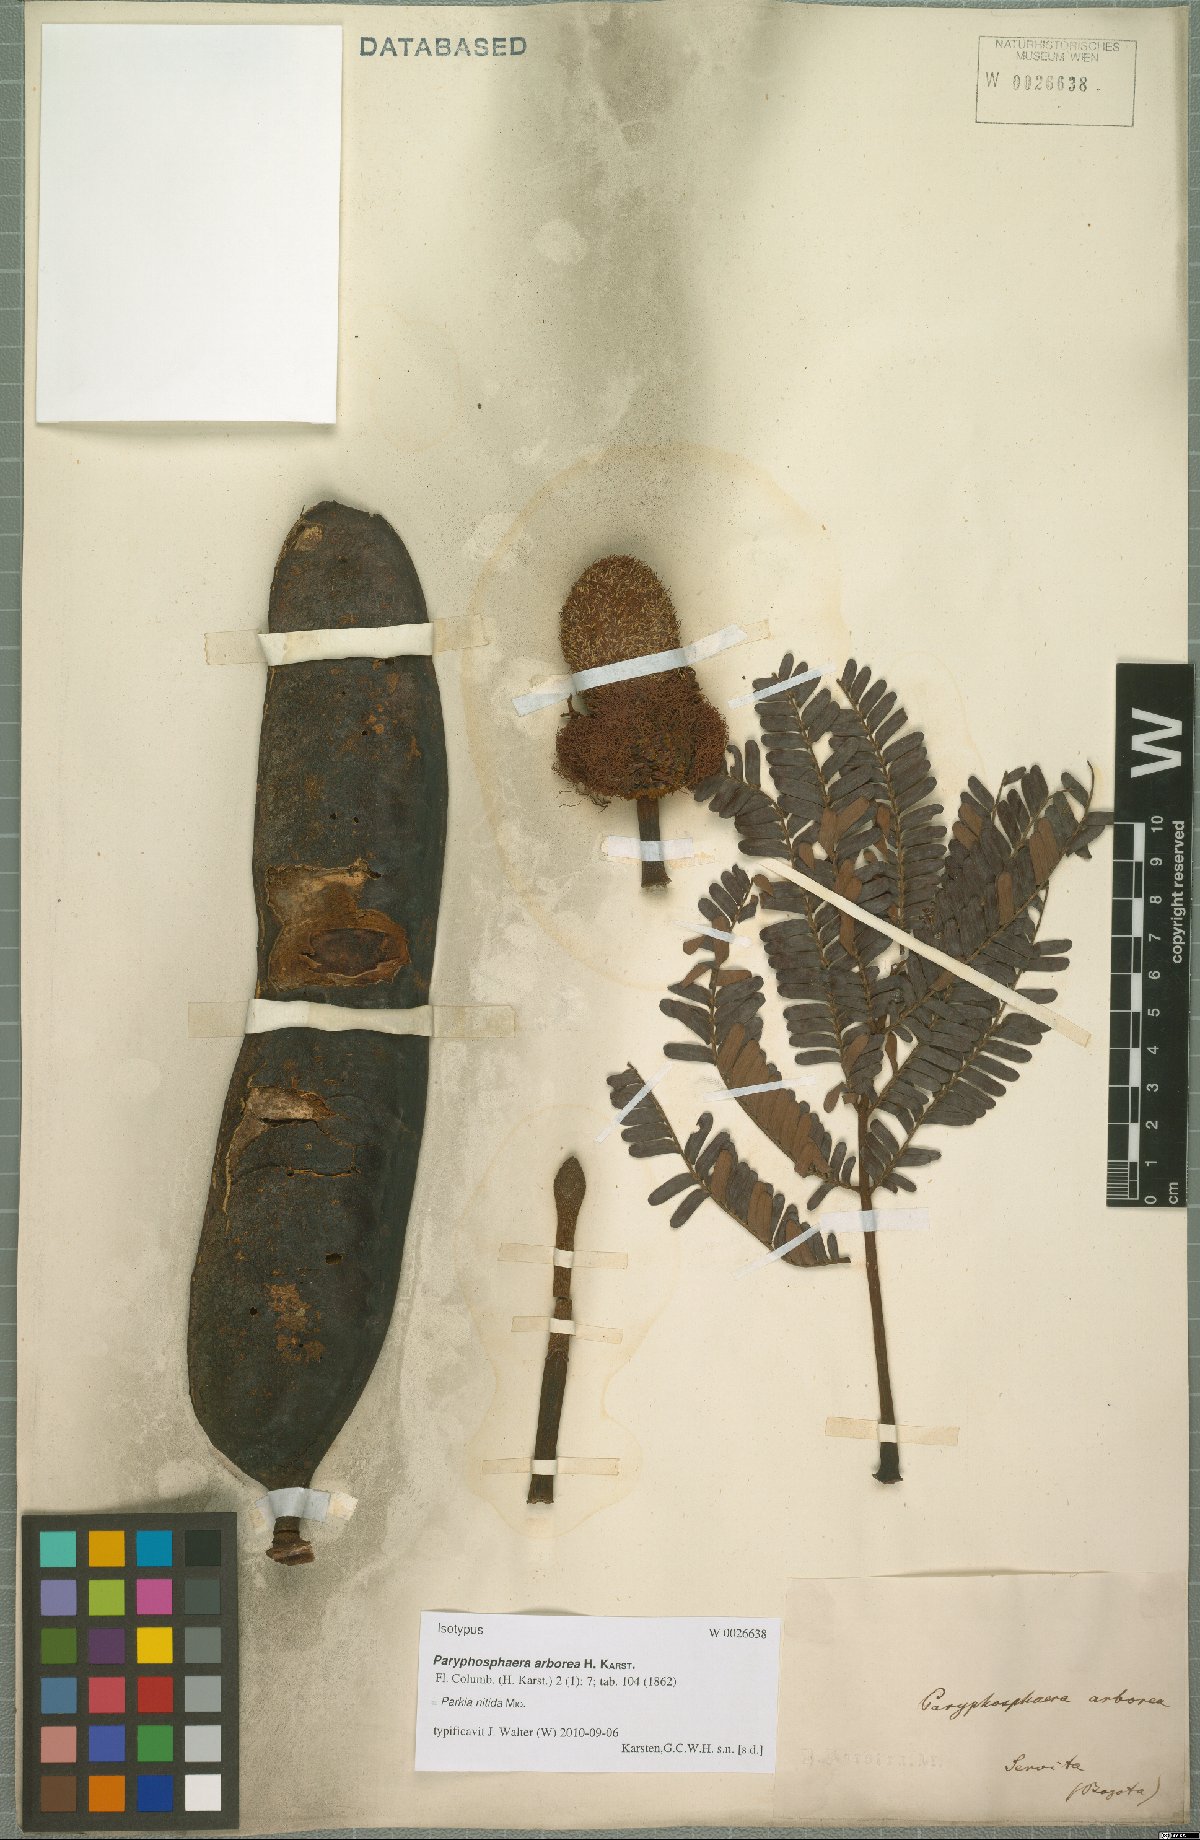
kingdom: Plantae
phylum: Tracheophyta
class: Magnoliopsida
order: Fabales
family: Fabaceae
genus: Parkia
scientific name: Parkia nitida
